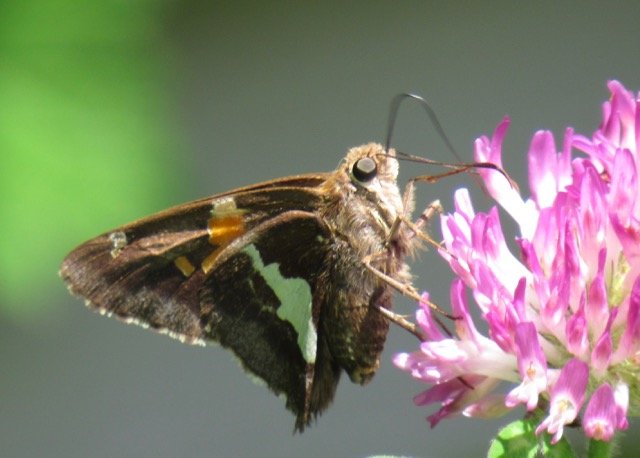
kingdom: Animalia
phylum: Arthropoda
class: Insecta
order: Lepidoptera
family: Hesperiidae
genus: Epargyreus
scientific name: Epargyreus clarus
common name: Silver-spotted Skipper
